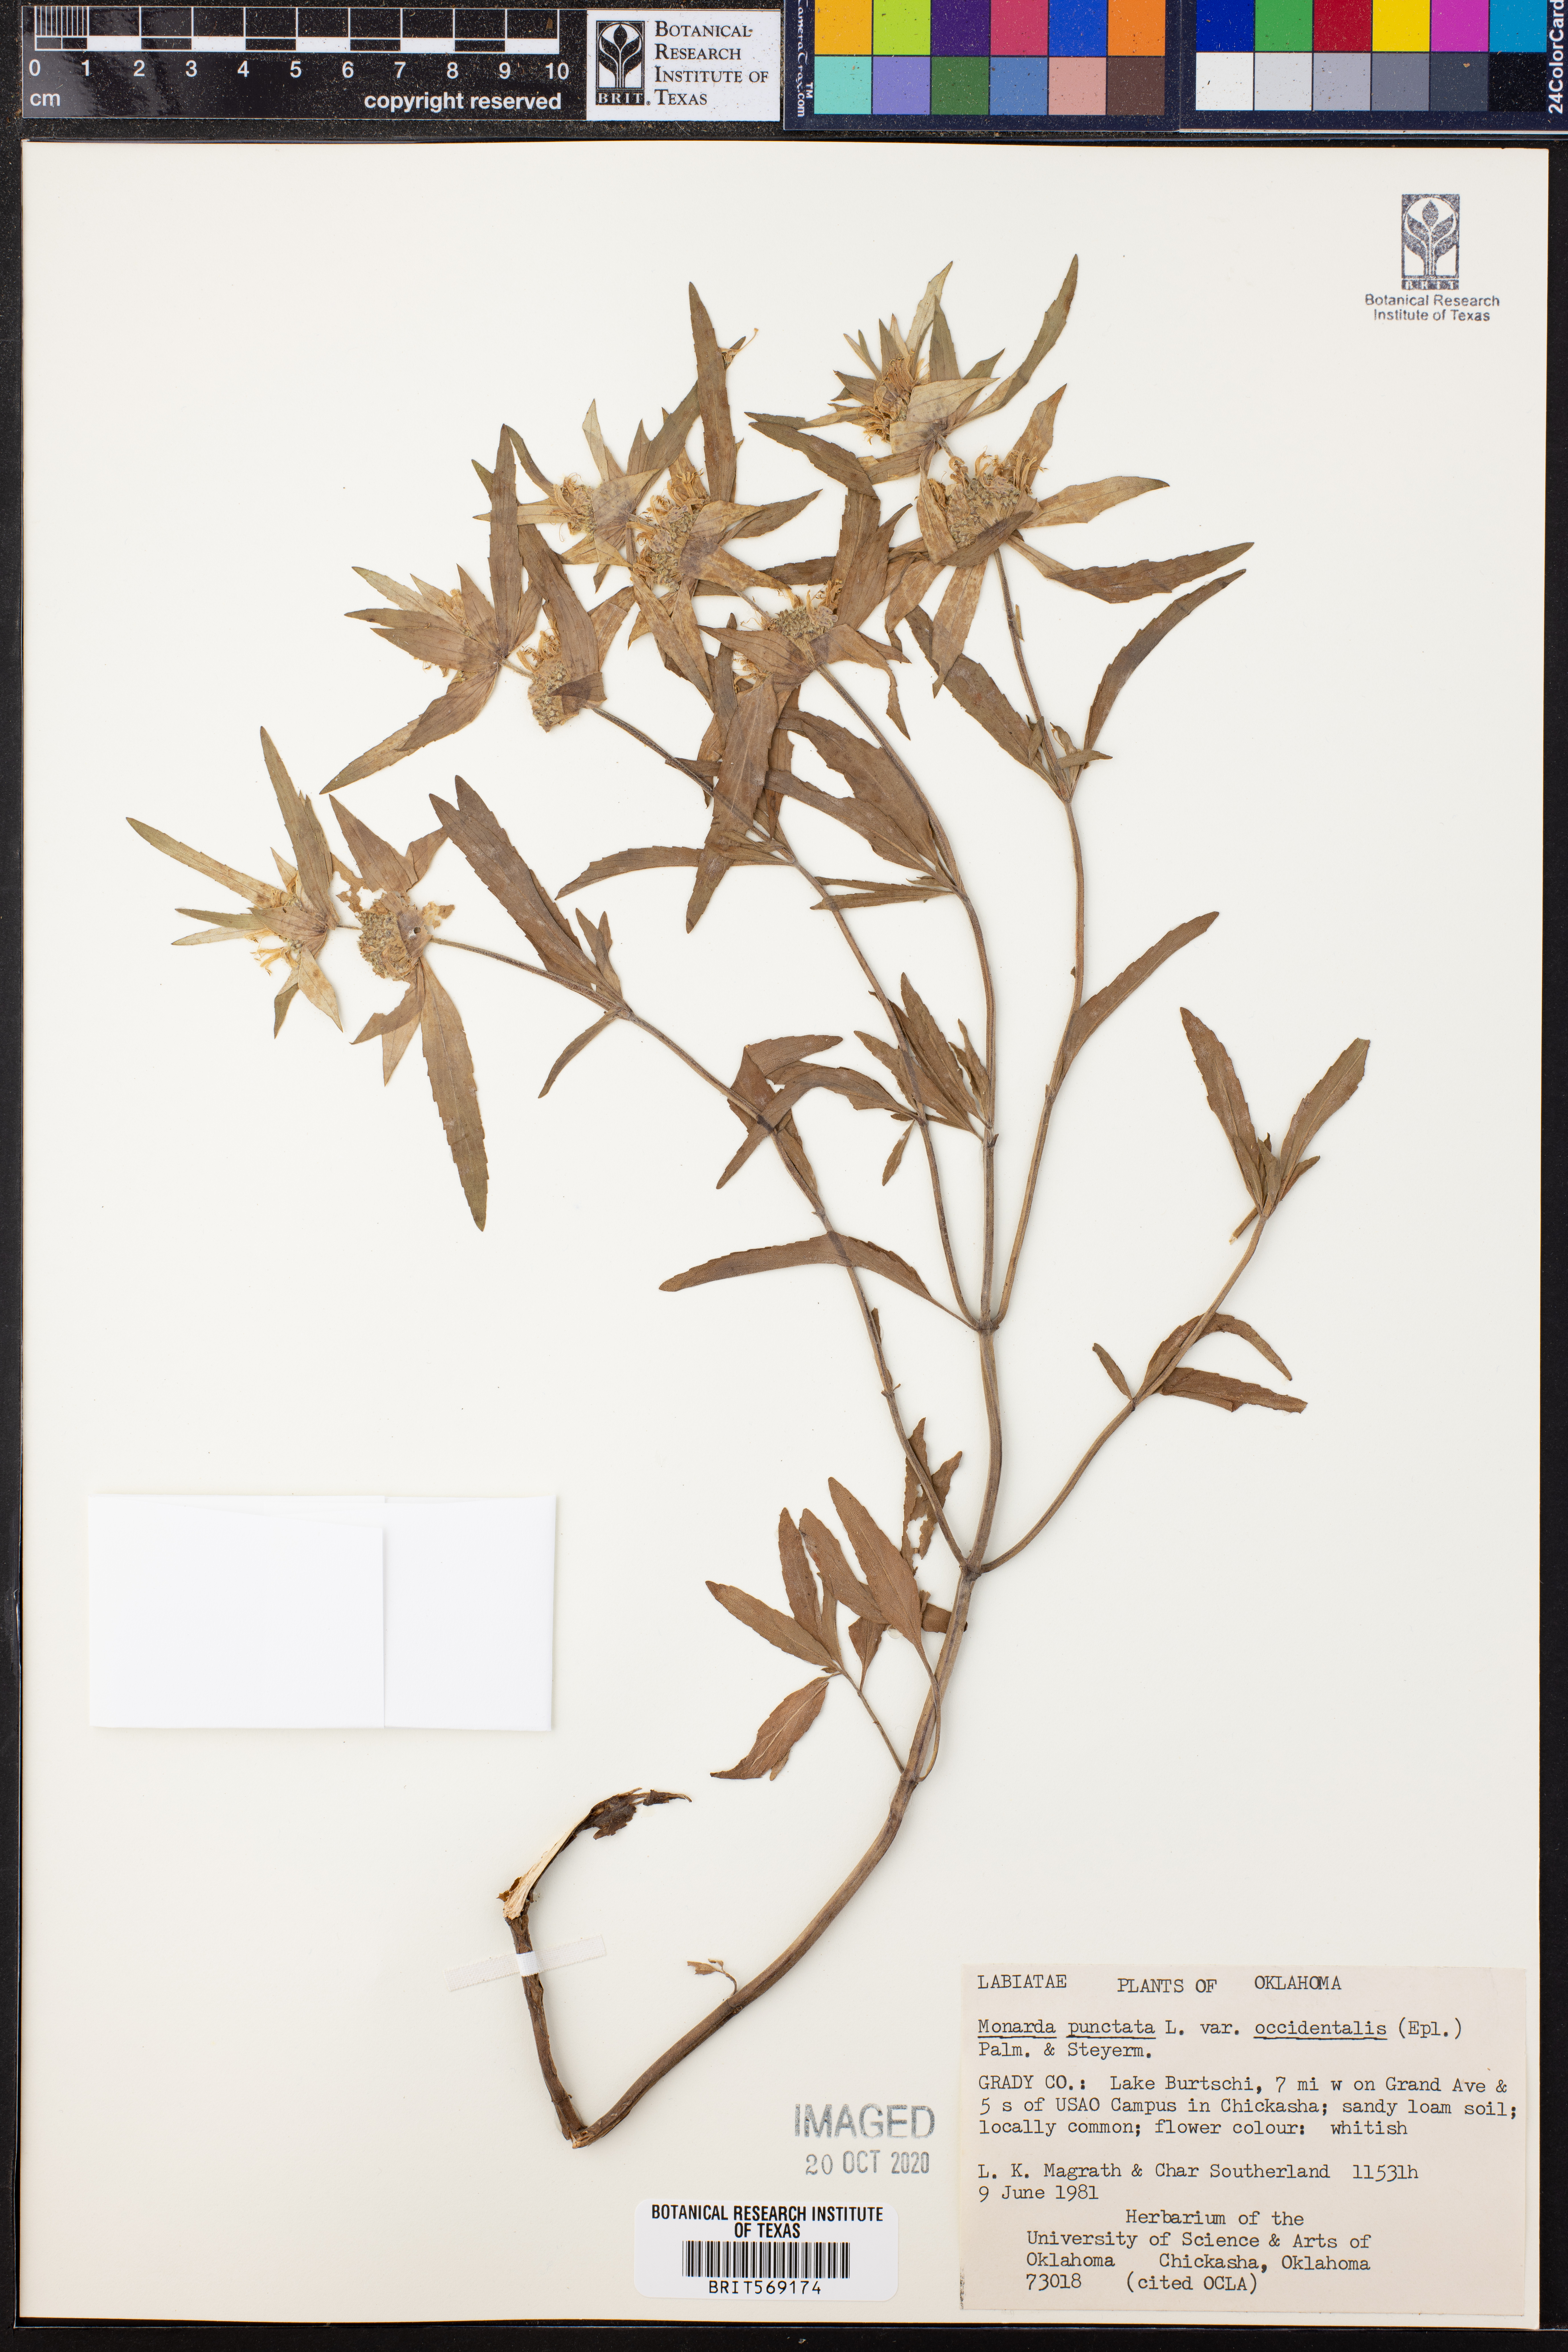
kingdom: Plantae
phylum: Tracheophyta
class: Magnoliopsida
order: Lamiales
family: Lamiaceae
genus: Monarda
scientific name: Monarda punctata
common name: Dotted monarda
